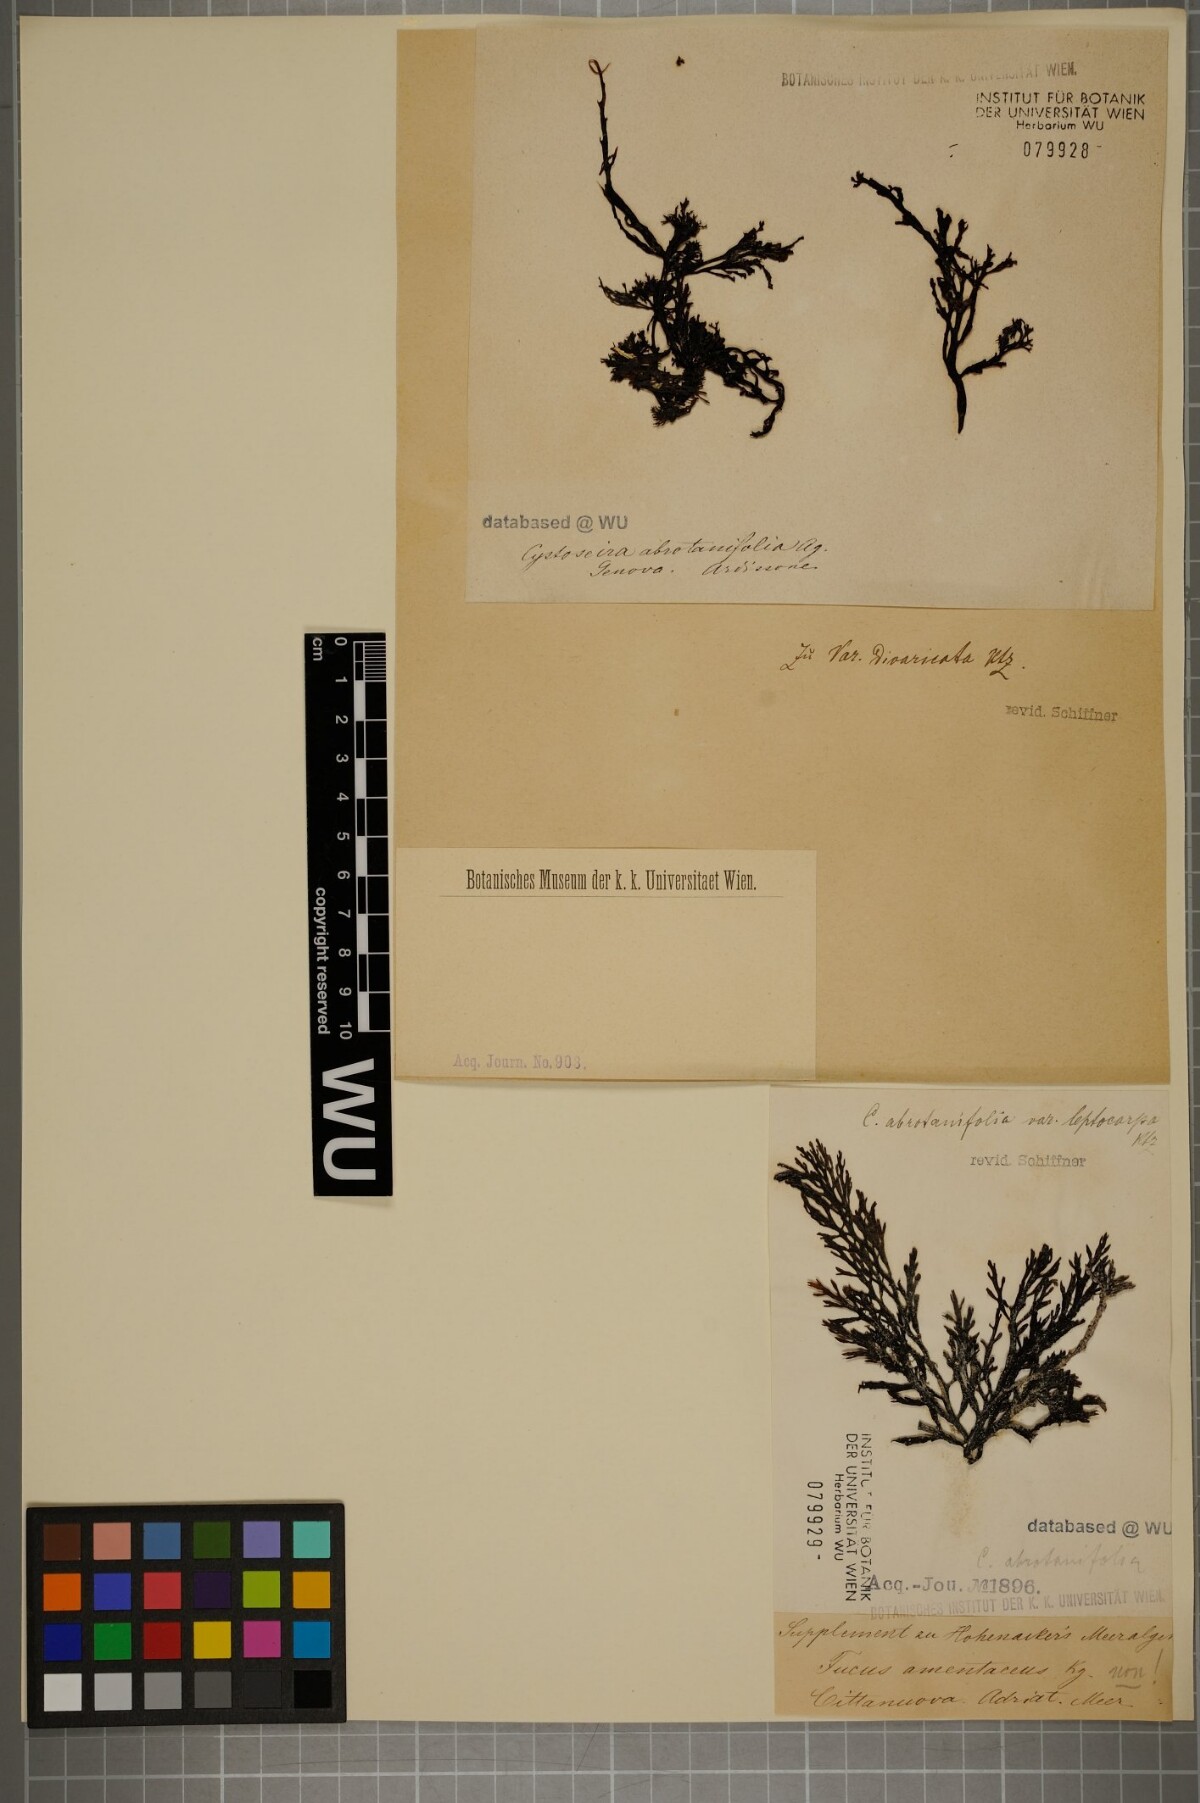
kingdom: Chromista
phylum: Ochrophyta
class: Phaeophyceae
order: Fucales
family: Sargassaceae
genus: Cystoseira
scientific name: Cystoseira foeniculacea
